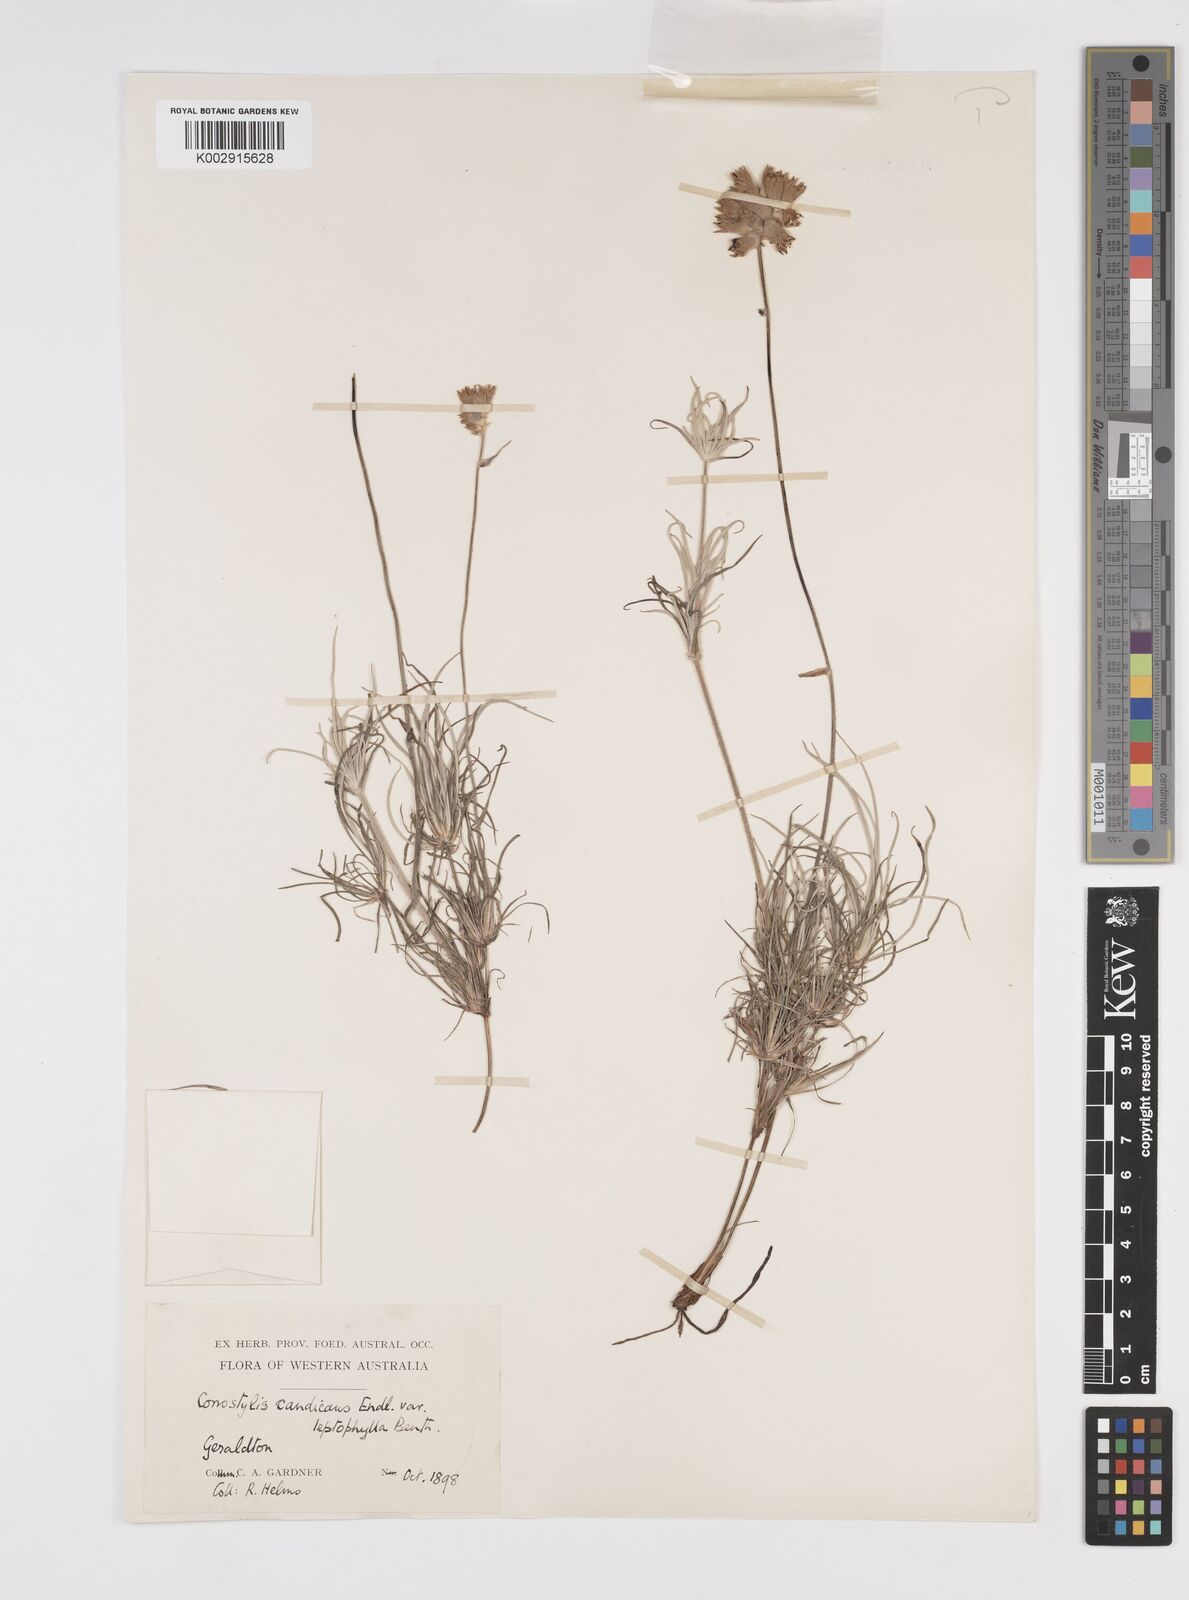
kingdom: Plantae
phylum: Tracheophyta
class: Liliopsida
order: Commelinales
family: Haemodoraceae
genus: Conostylis
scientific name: Conostylis candicans
